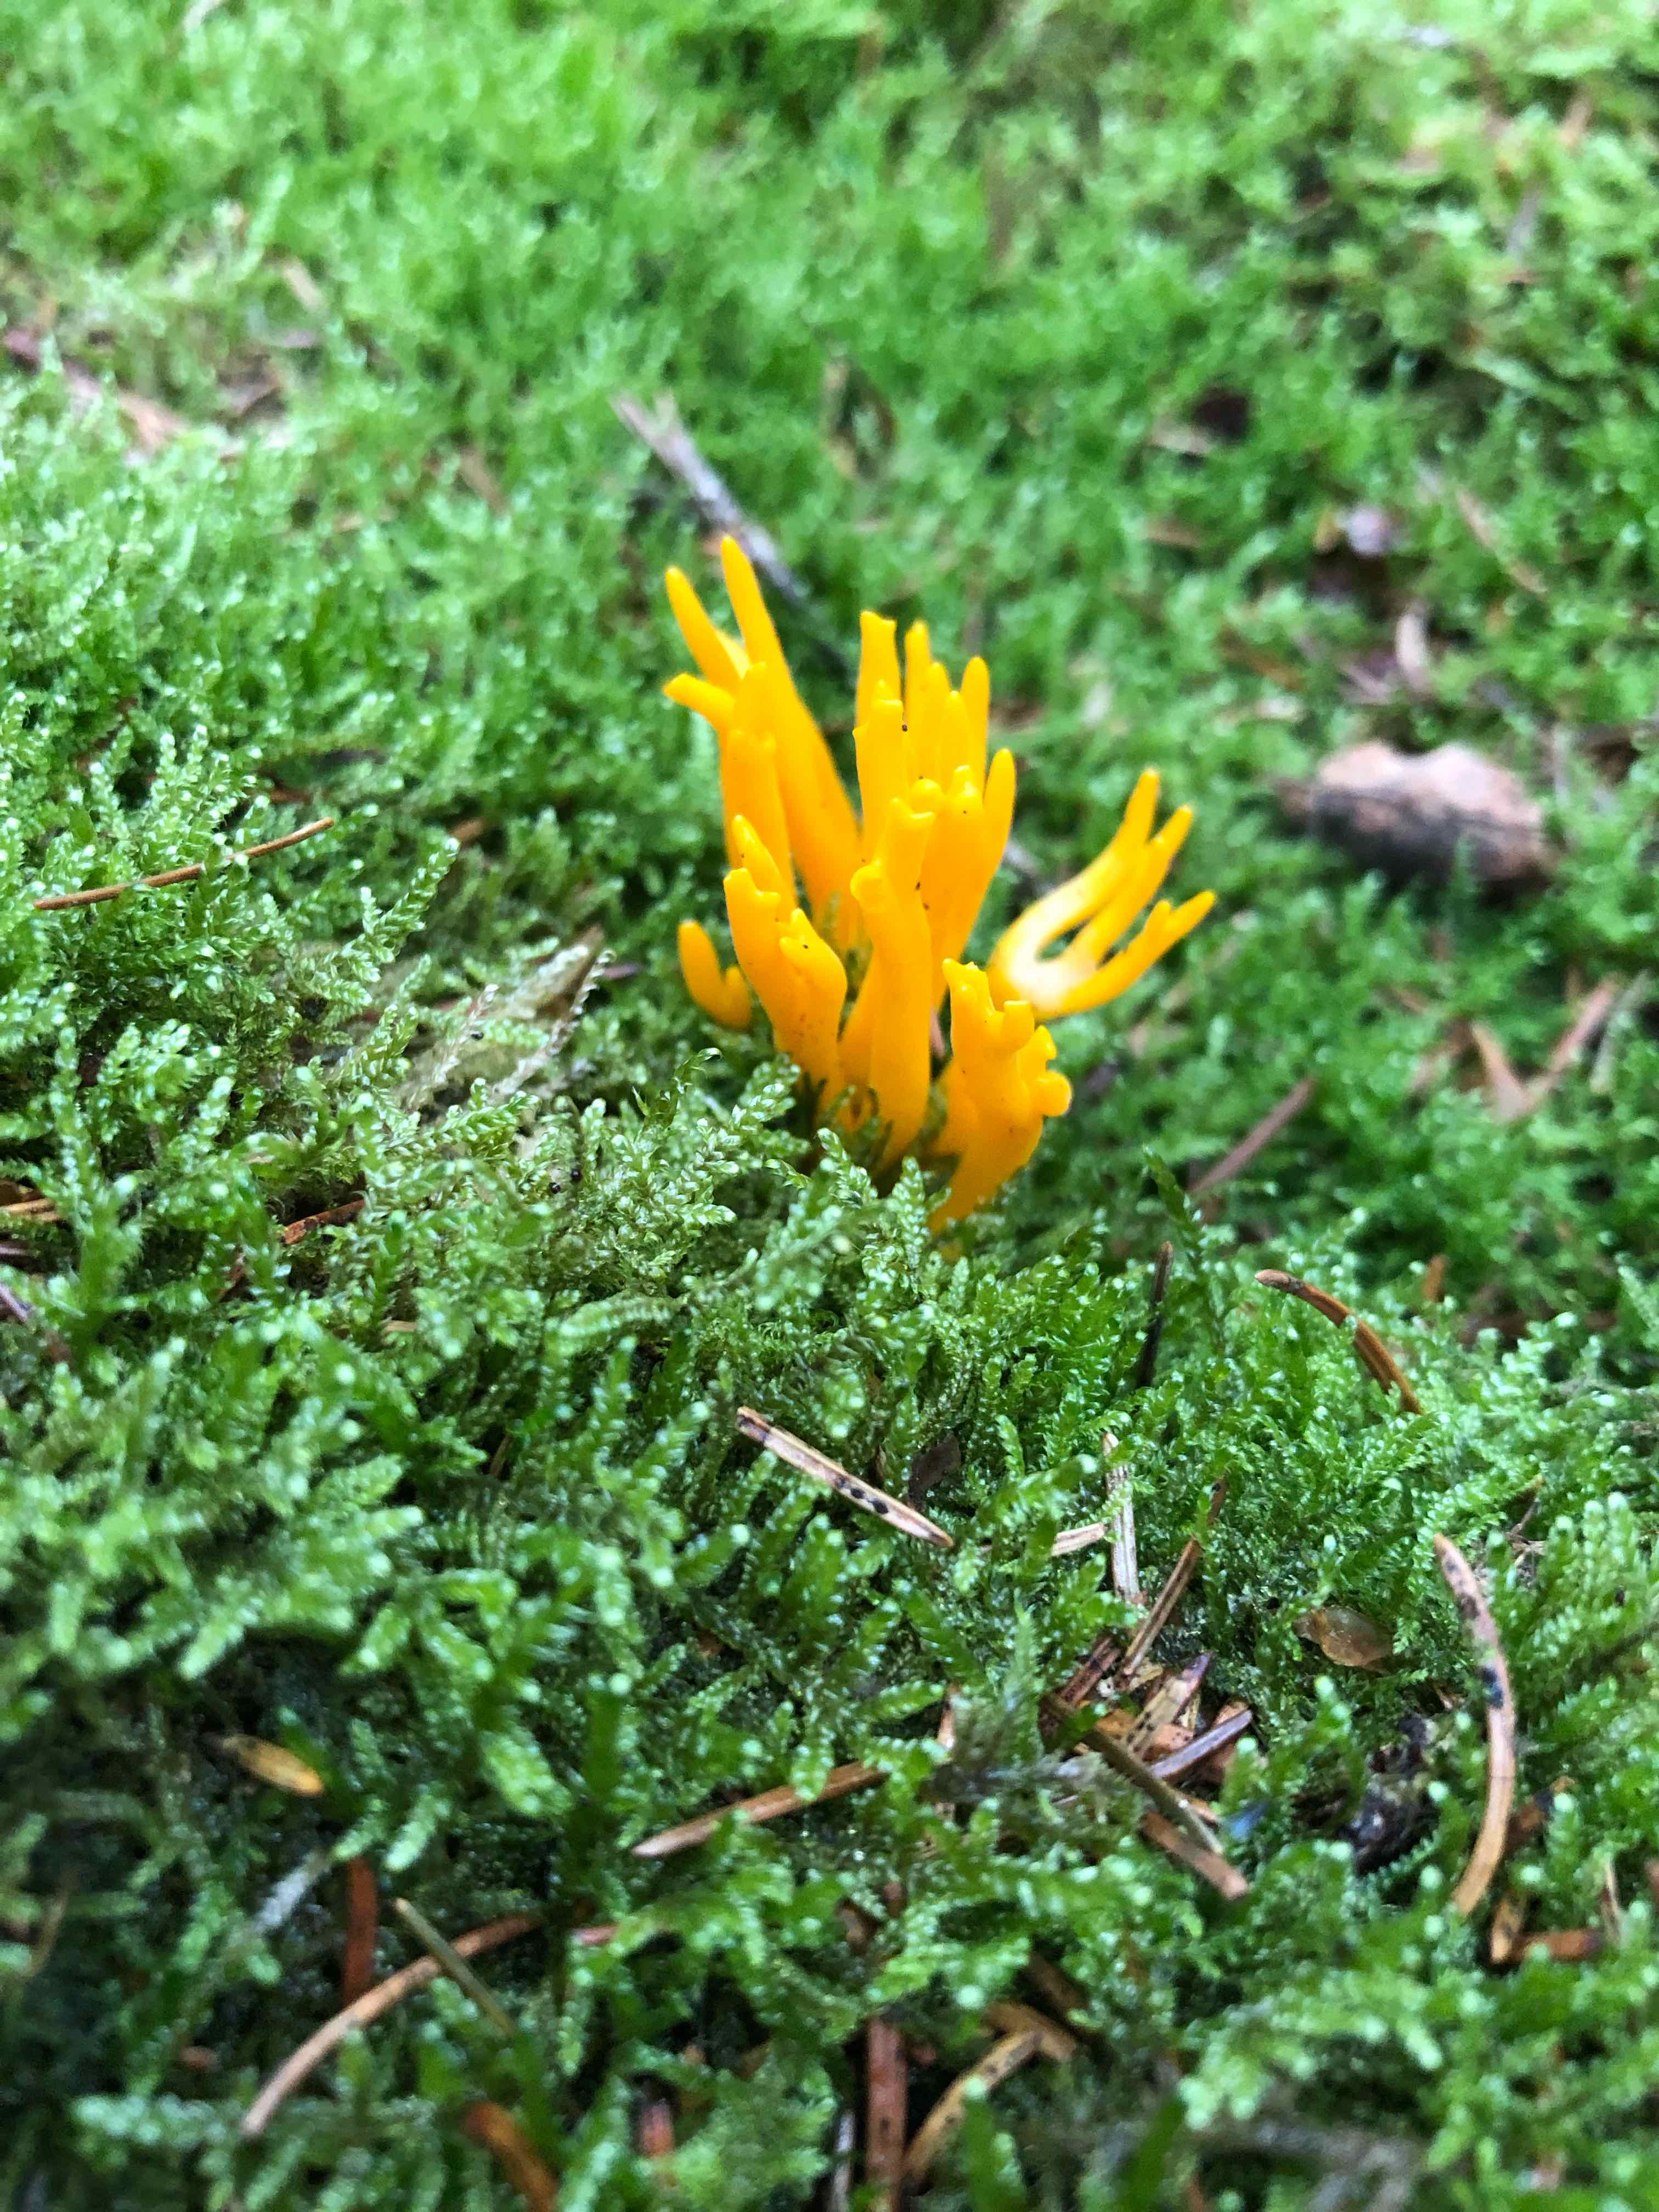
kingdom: Fungi
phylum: Basidiomycota
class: Dacrymycetes
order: Dacrymycetales
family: Dacrymycetaceae
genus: Calocera
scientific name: Calocera viscosa
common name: almindelig guldgaffel
